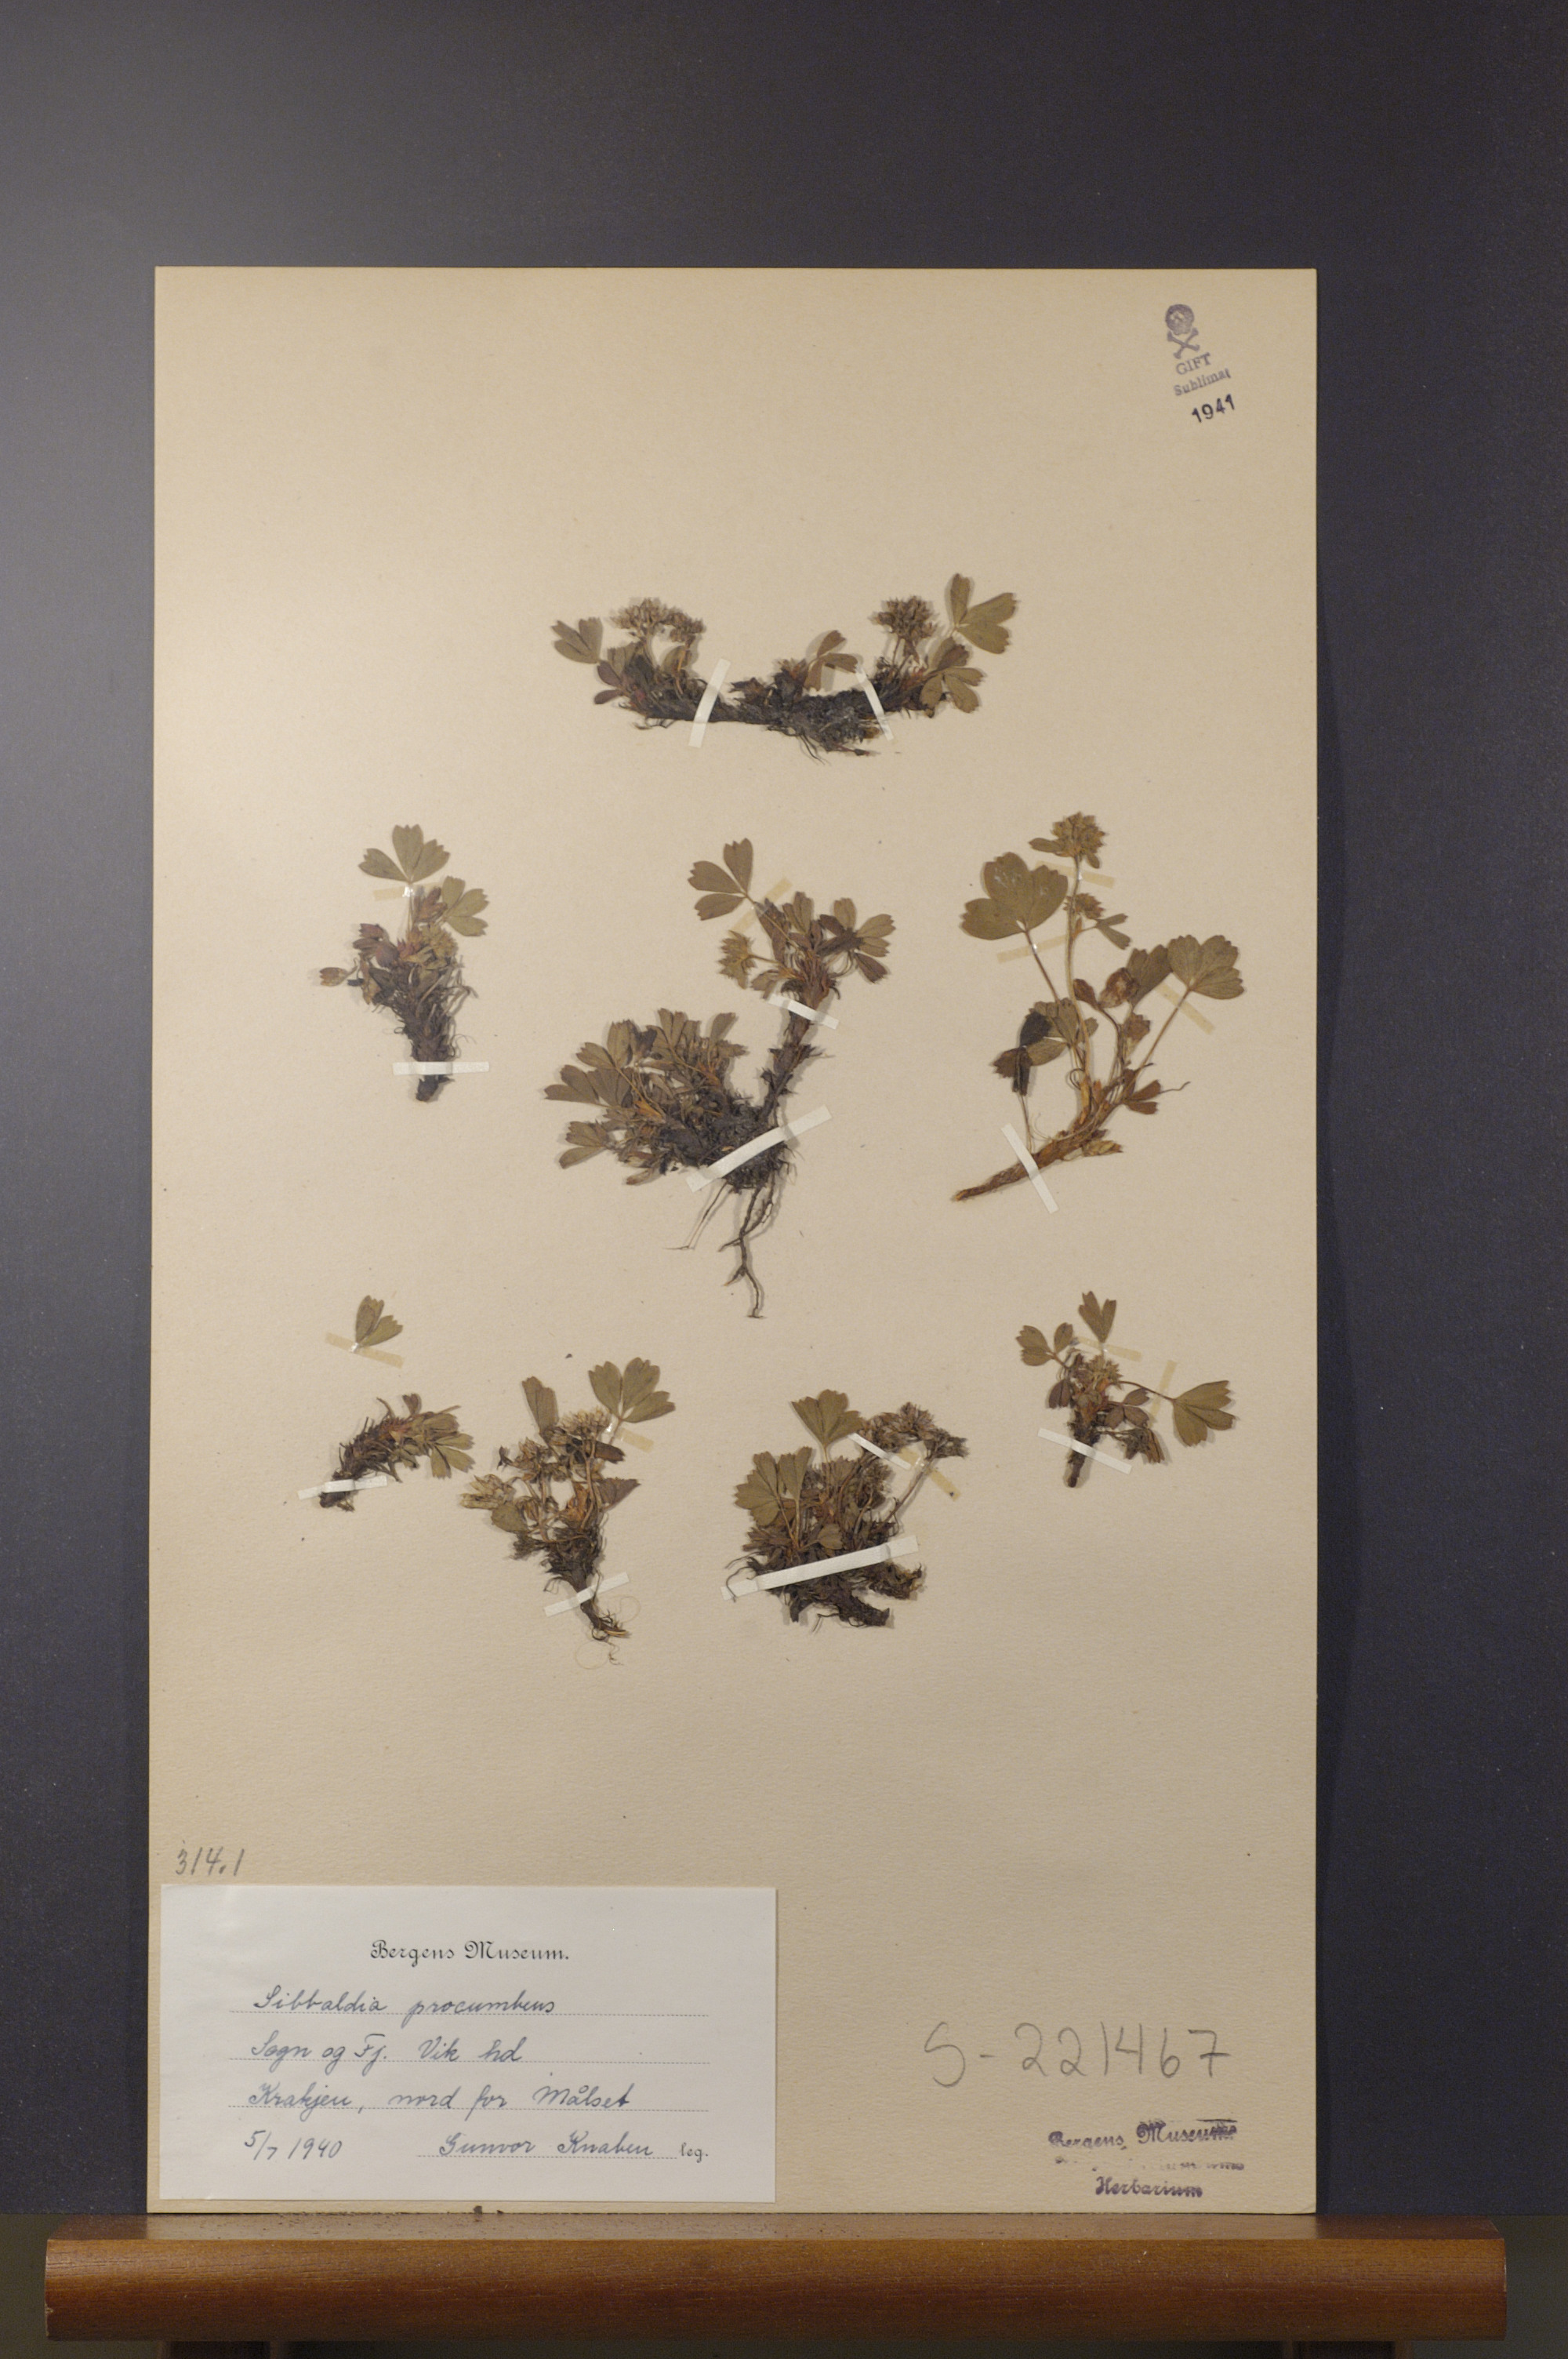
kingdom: Plantae
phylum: Tracheophyta
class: Magnoliopsida
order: Rosales
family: Rosaceae
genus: Sibbaldia
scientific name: Sibbaldia procumbens
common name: Creeping sibbaldia
